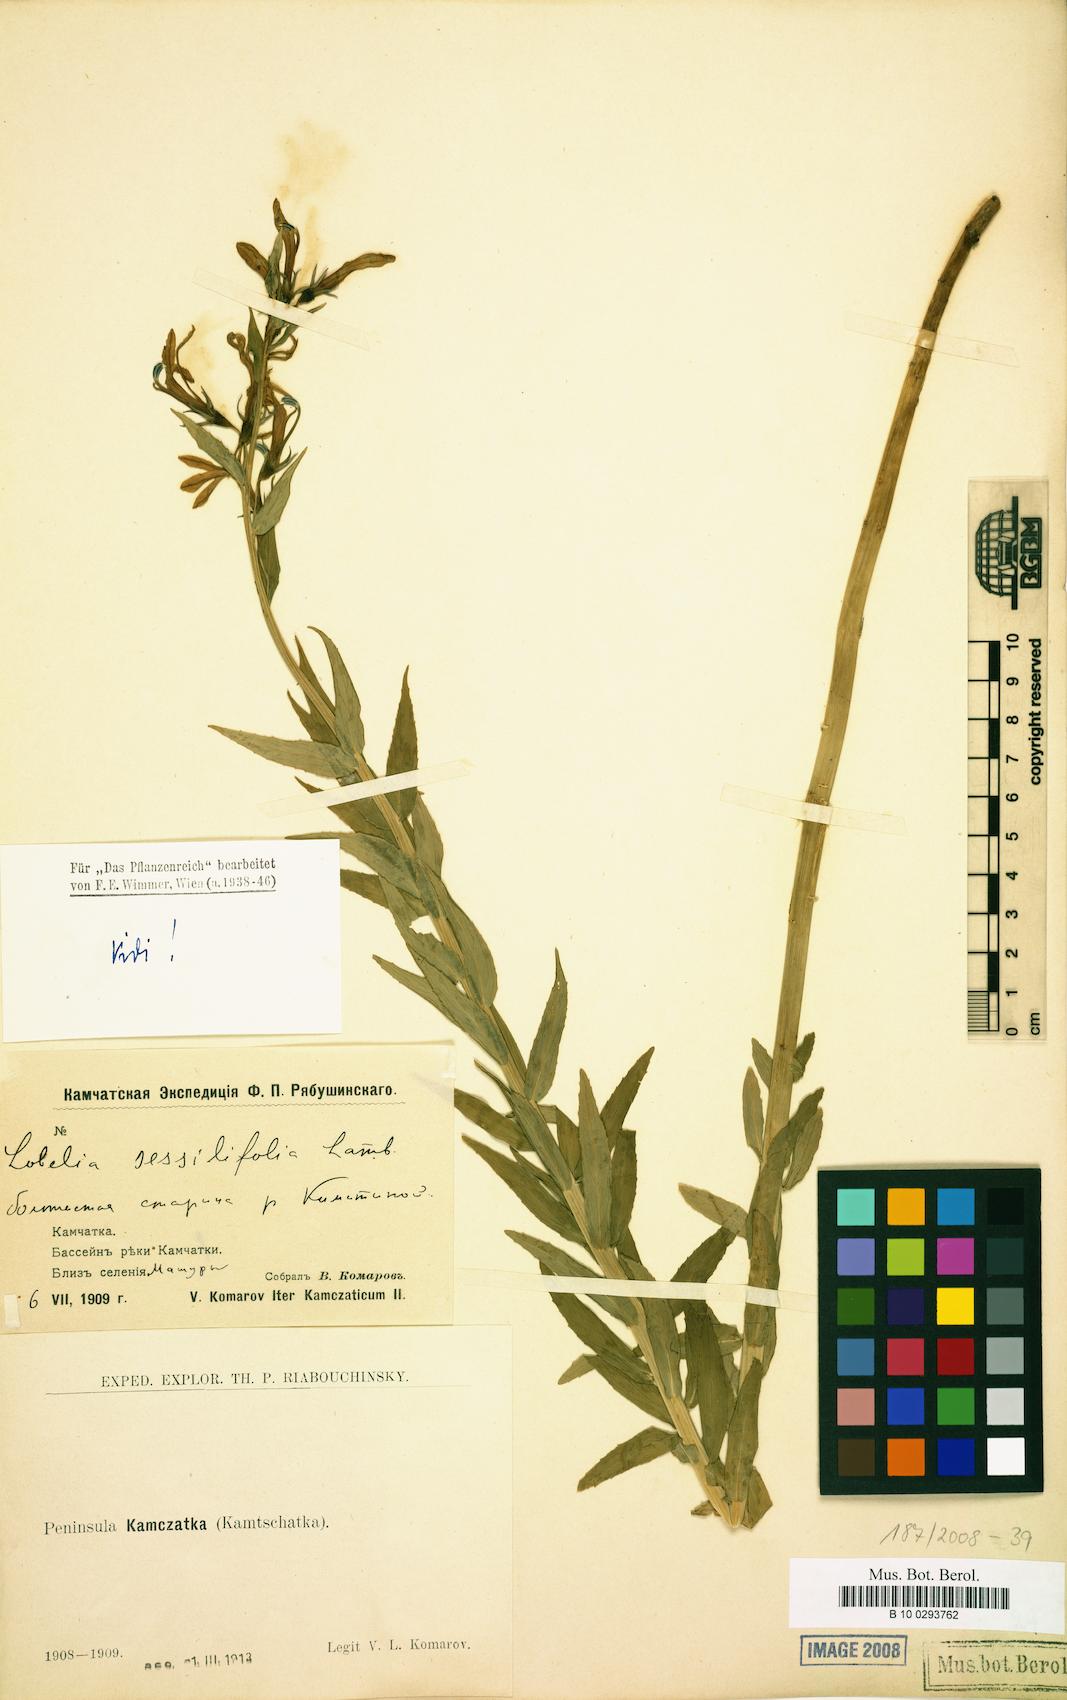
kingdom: Plantae
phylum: Tracheophyta
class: Magnoliopsida
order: Asterales
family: Campanulaceae
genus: Lobelia
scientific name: Lobelia sessilifolia
